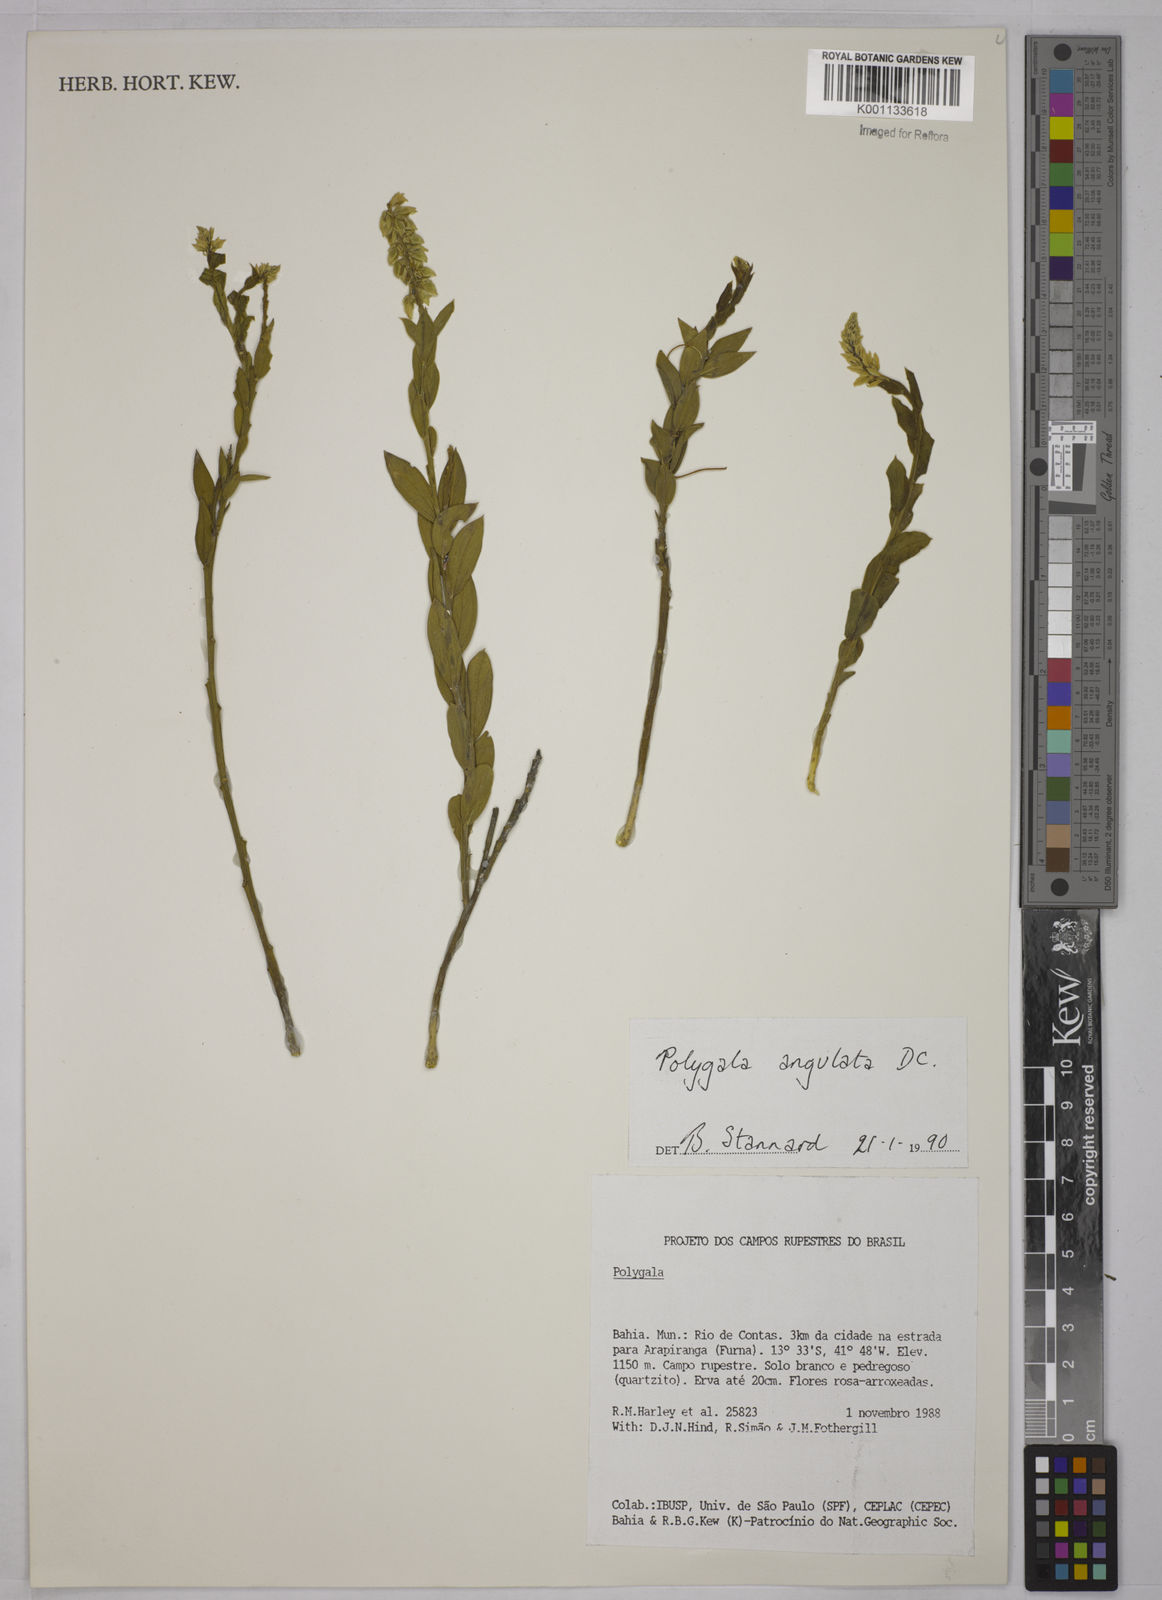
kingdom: Plantae
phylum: Tracheophyta
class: Magnoliopsida
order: Fabales
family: Polygalaceae
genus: Polygala
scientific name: Polygala poaya
